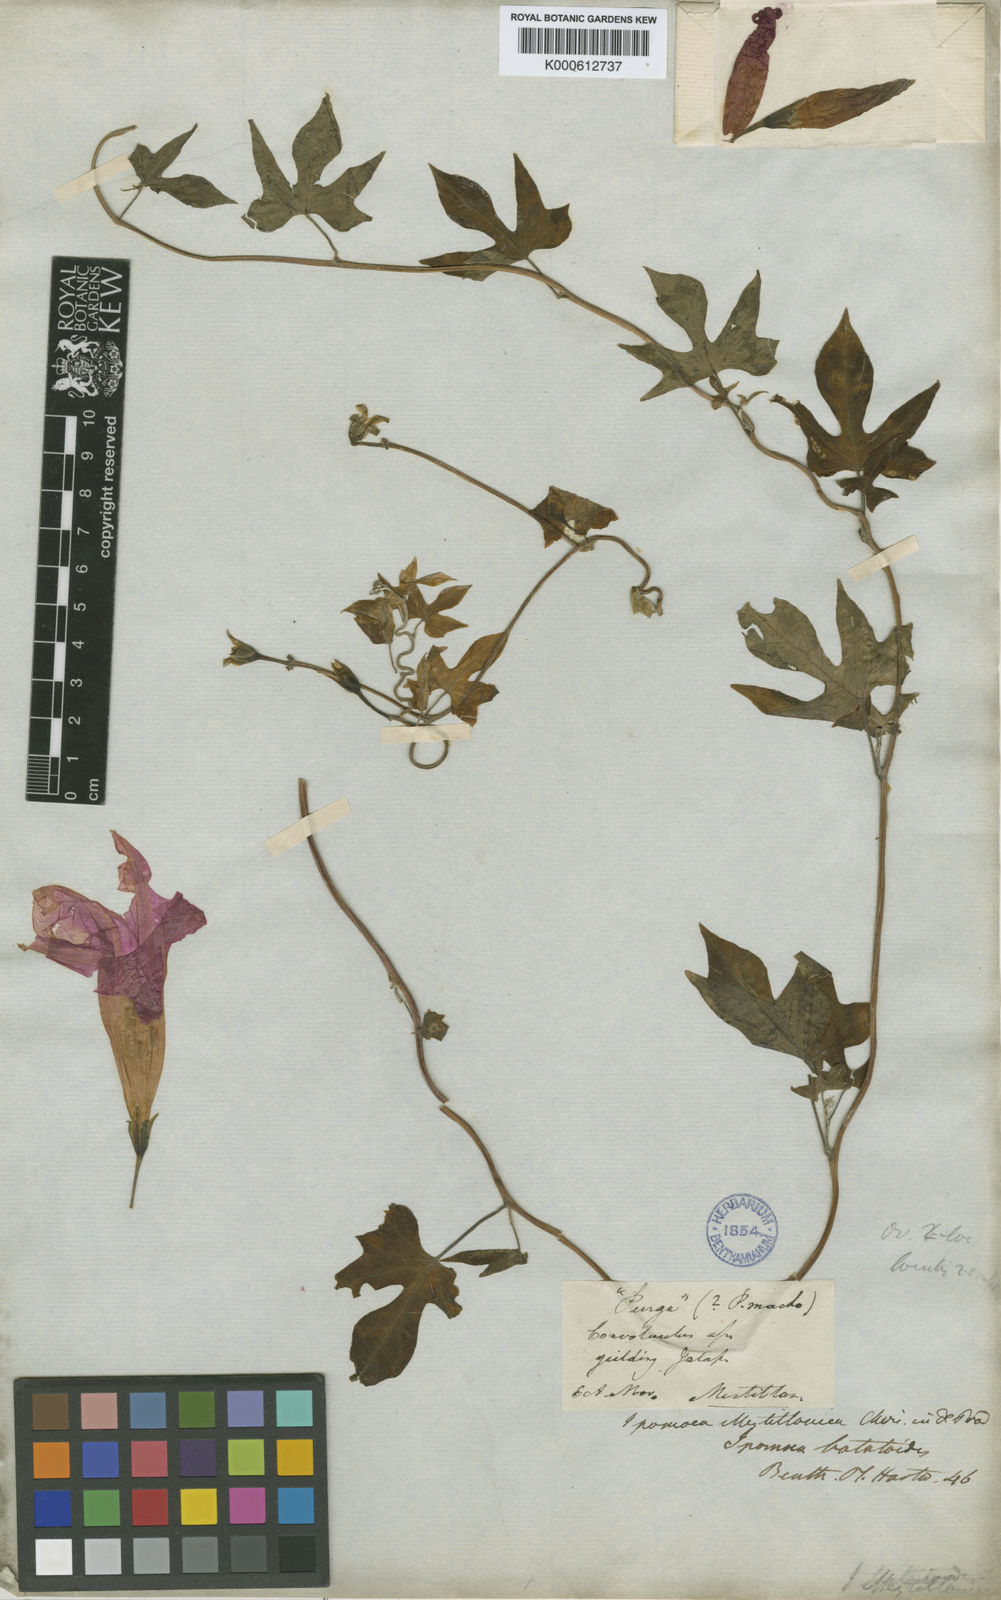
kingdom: Plantae
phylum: Tracheophyta
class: Magnoliopsida
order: Solanales
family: Convolvulaceae
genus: Ipomoea
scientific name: Ipomoea orizabensis
